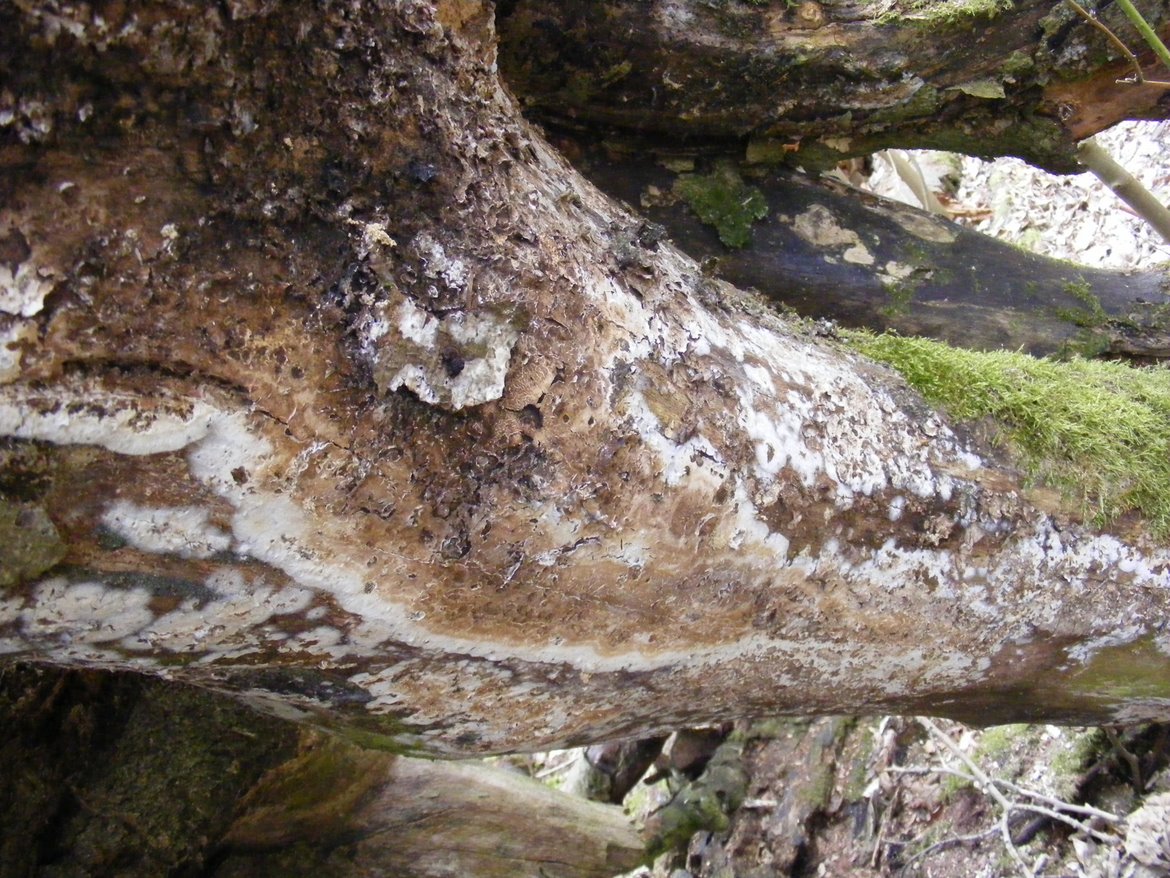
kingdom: Fungi
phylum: Basidiomycota
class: Agaricomycetes
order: Boletales
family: Coniophoraceae
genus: Coniophora
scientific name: Coniophora puteana
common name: gul tømmersvamp
